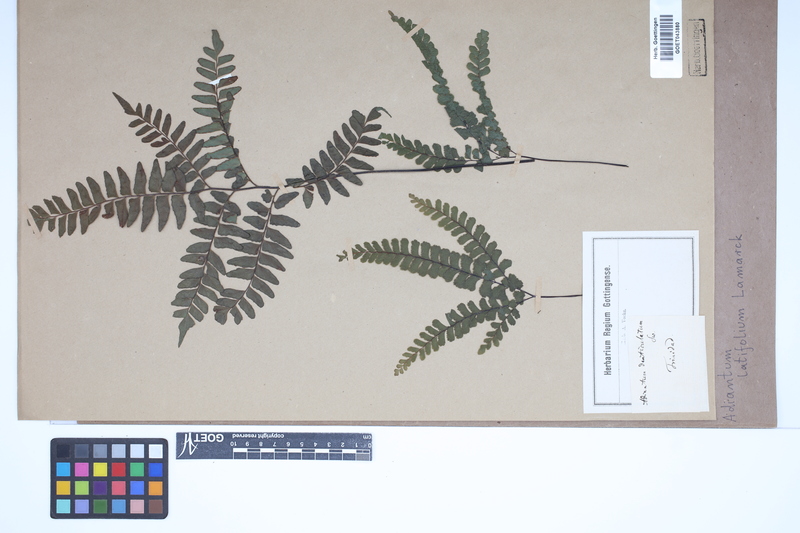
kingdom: Plantae
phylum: Tracheophyta
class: Polypodiopsida
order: Polypodiales
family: Pteridaceae
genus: Adiantum
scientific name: Adiantum latifolium
